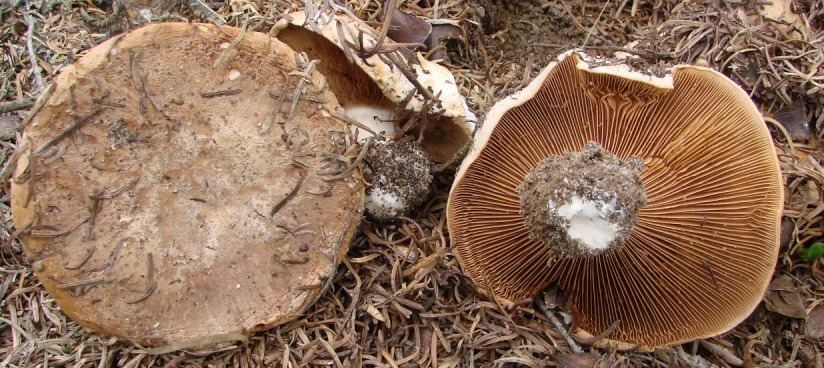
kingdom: Fungi
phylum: Basidiomycota
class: Agaricomycetes
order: Agaricales
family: Cortinariaceae
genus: Phlegmacium
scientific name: Phlegmacium areni-silvae
